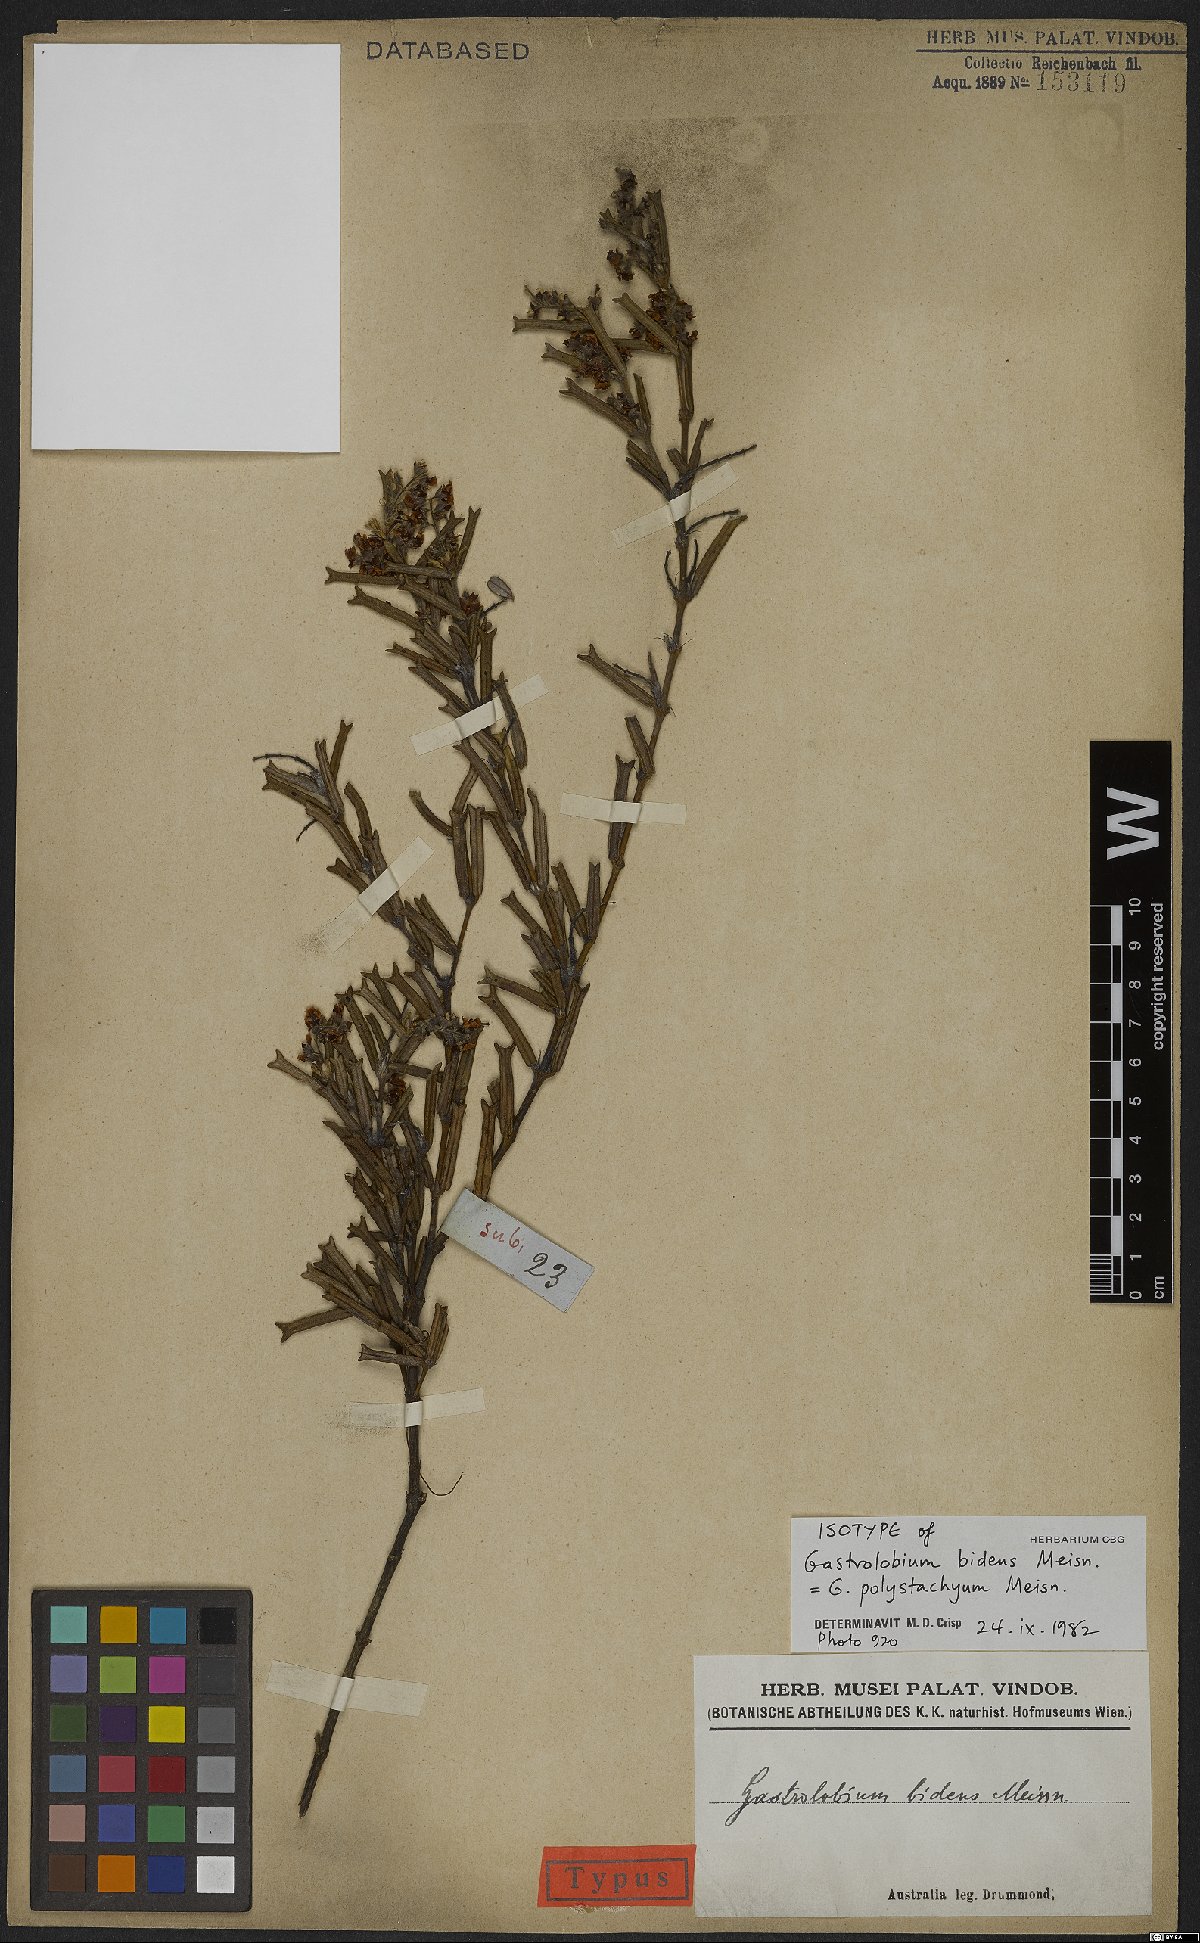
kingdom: Plantae
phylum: Tracheophyta
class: Magnoliopsida
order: Fabales
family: Fabaceae
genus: Gastrolobium
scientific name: Gastrolobium polystachyum
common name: Hill river poison
